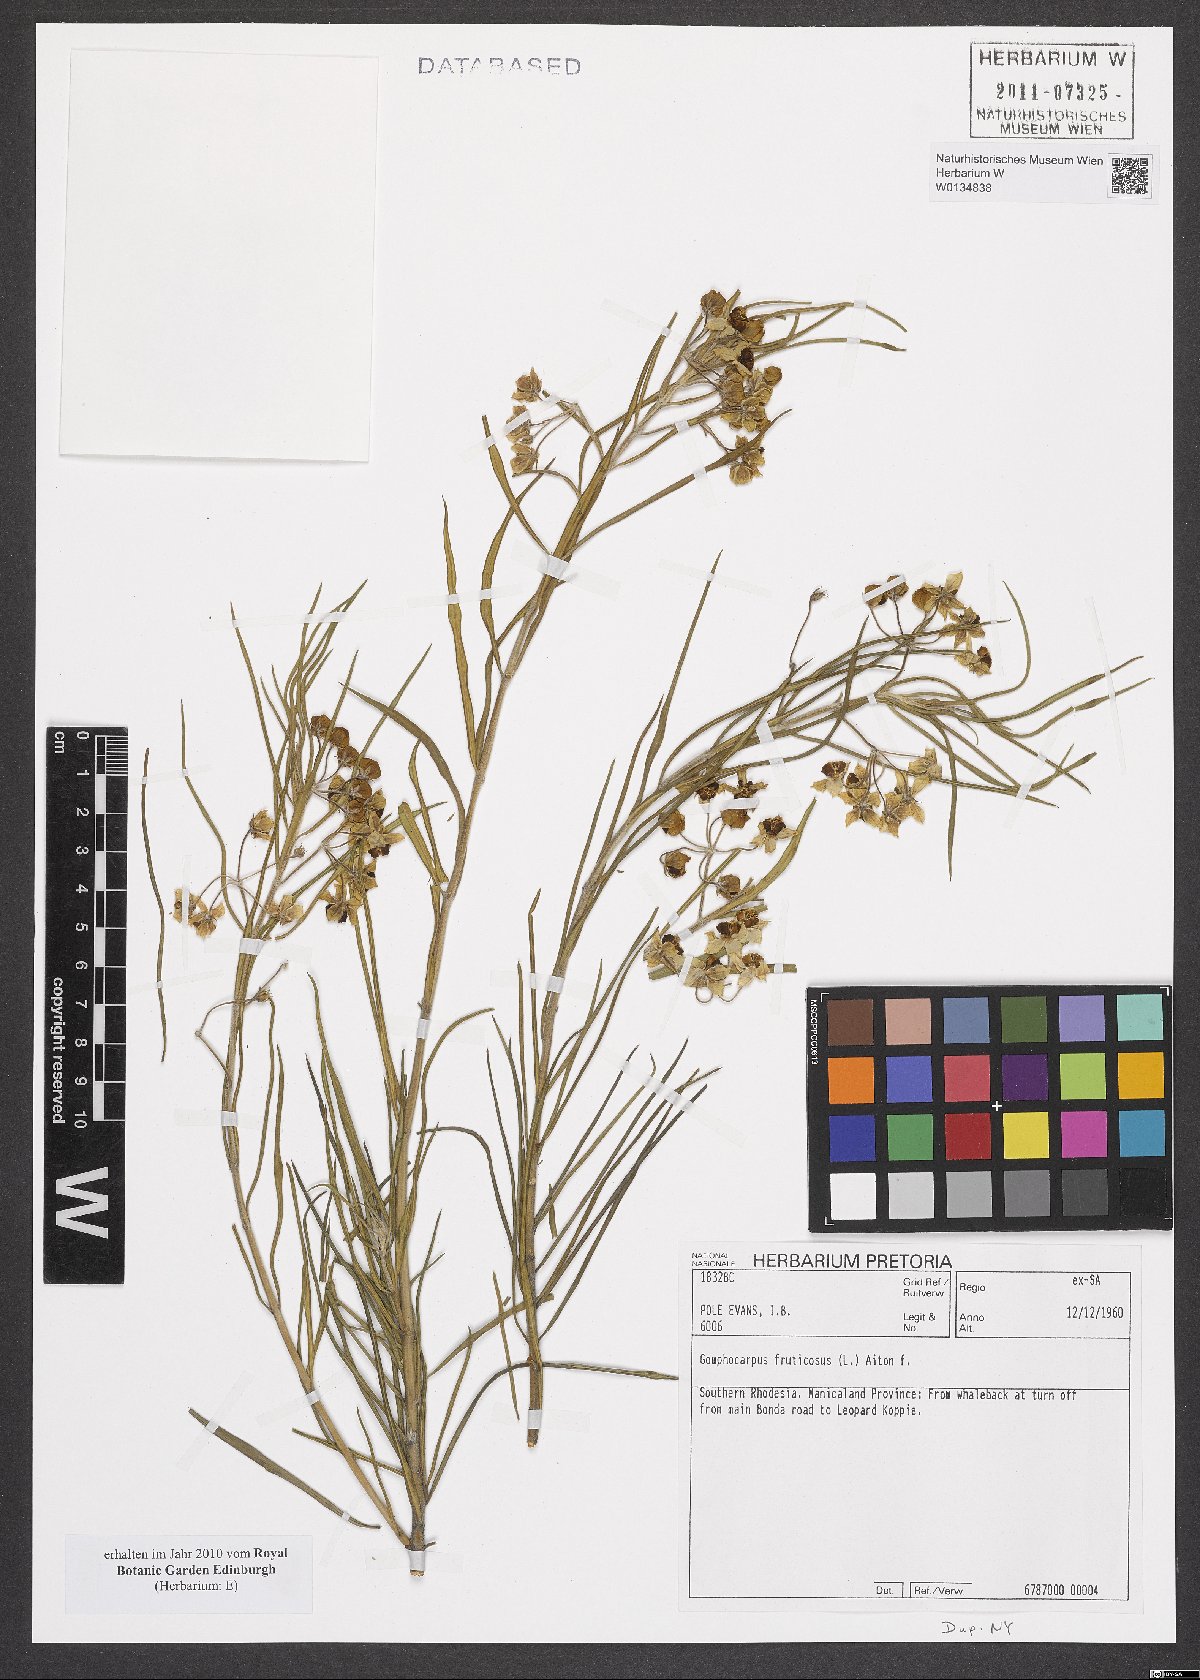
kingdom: Plantae
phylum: Tracheophyta
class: Magnoliopsida
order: Gentianales
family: Apocynaceae
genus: Gomphocarpus
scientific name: Gomphocarpus fruticosus
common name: Milkweed
